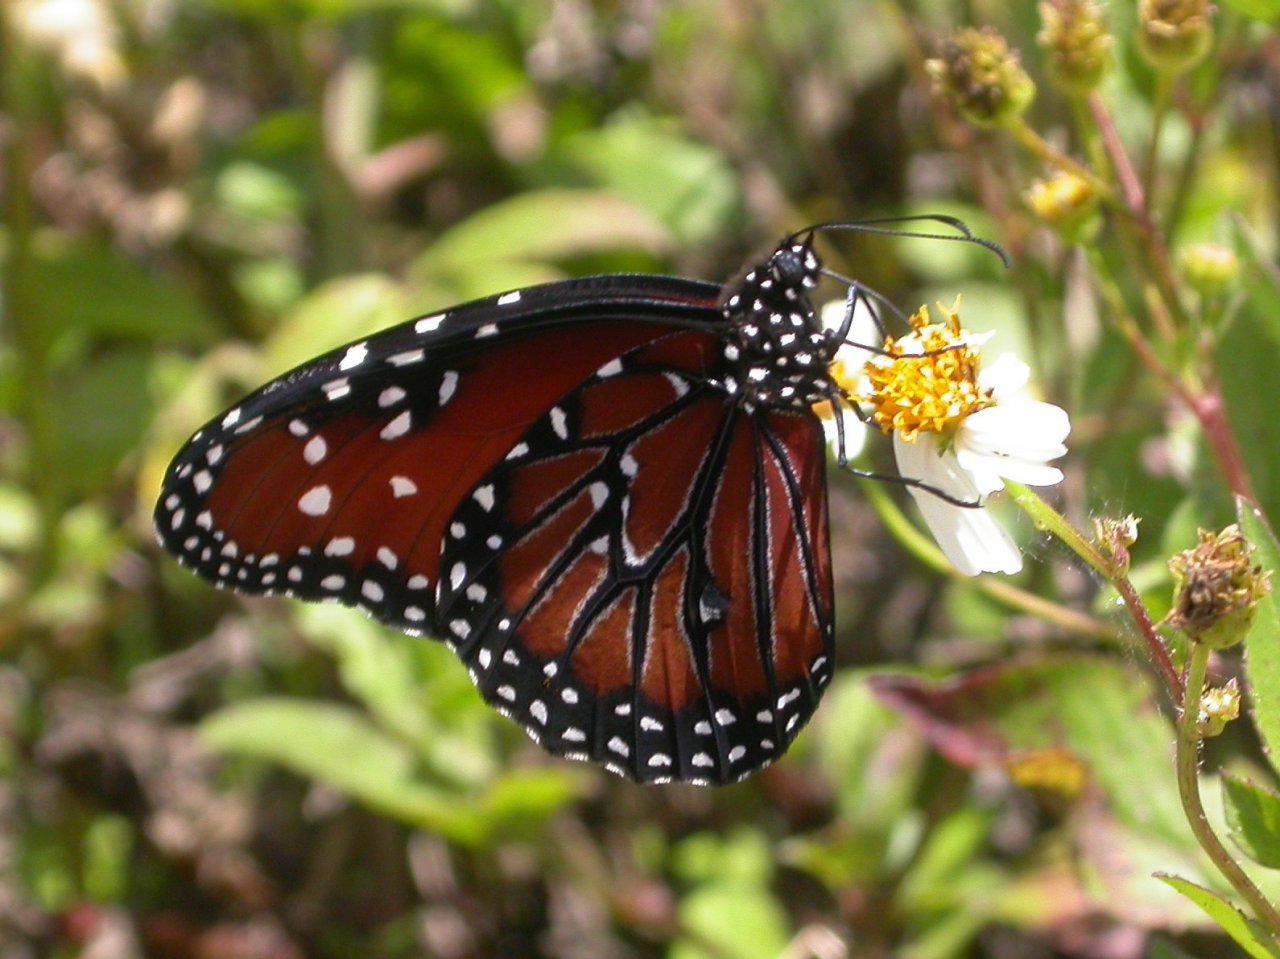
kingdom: Animalia
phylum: Arthropoda
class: Insecta
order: Lepidoptera
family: Nymphalidae
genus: Danaus
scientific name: Danaus gilippus
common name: Queen
